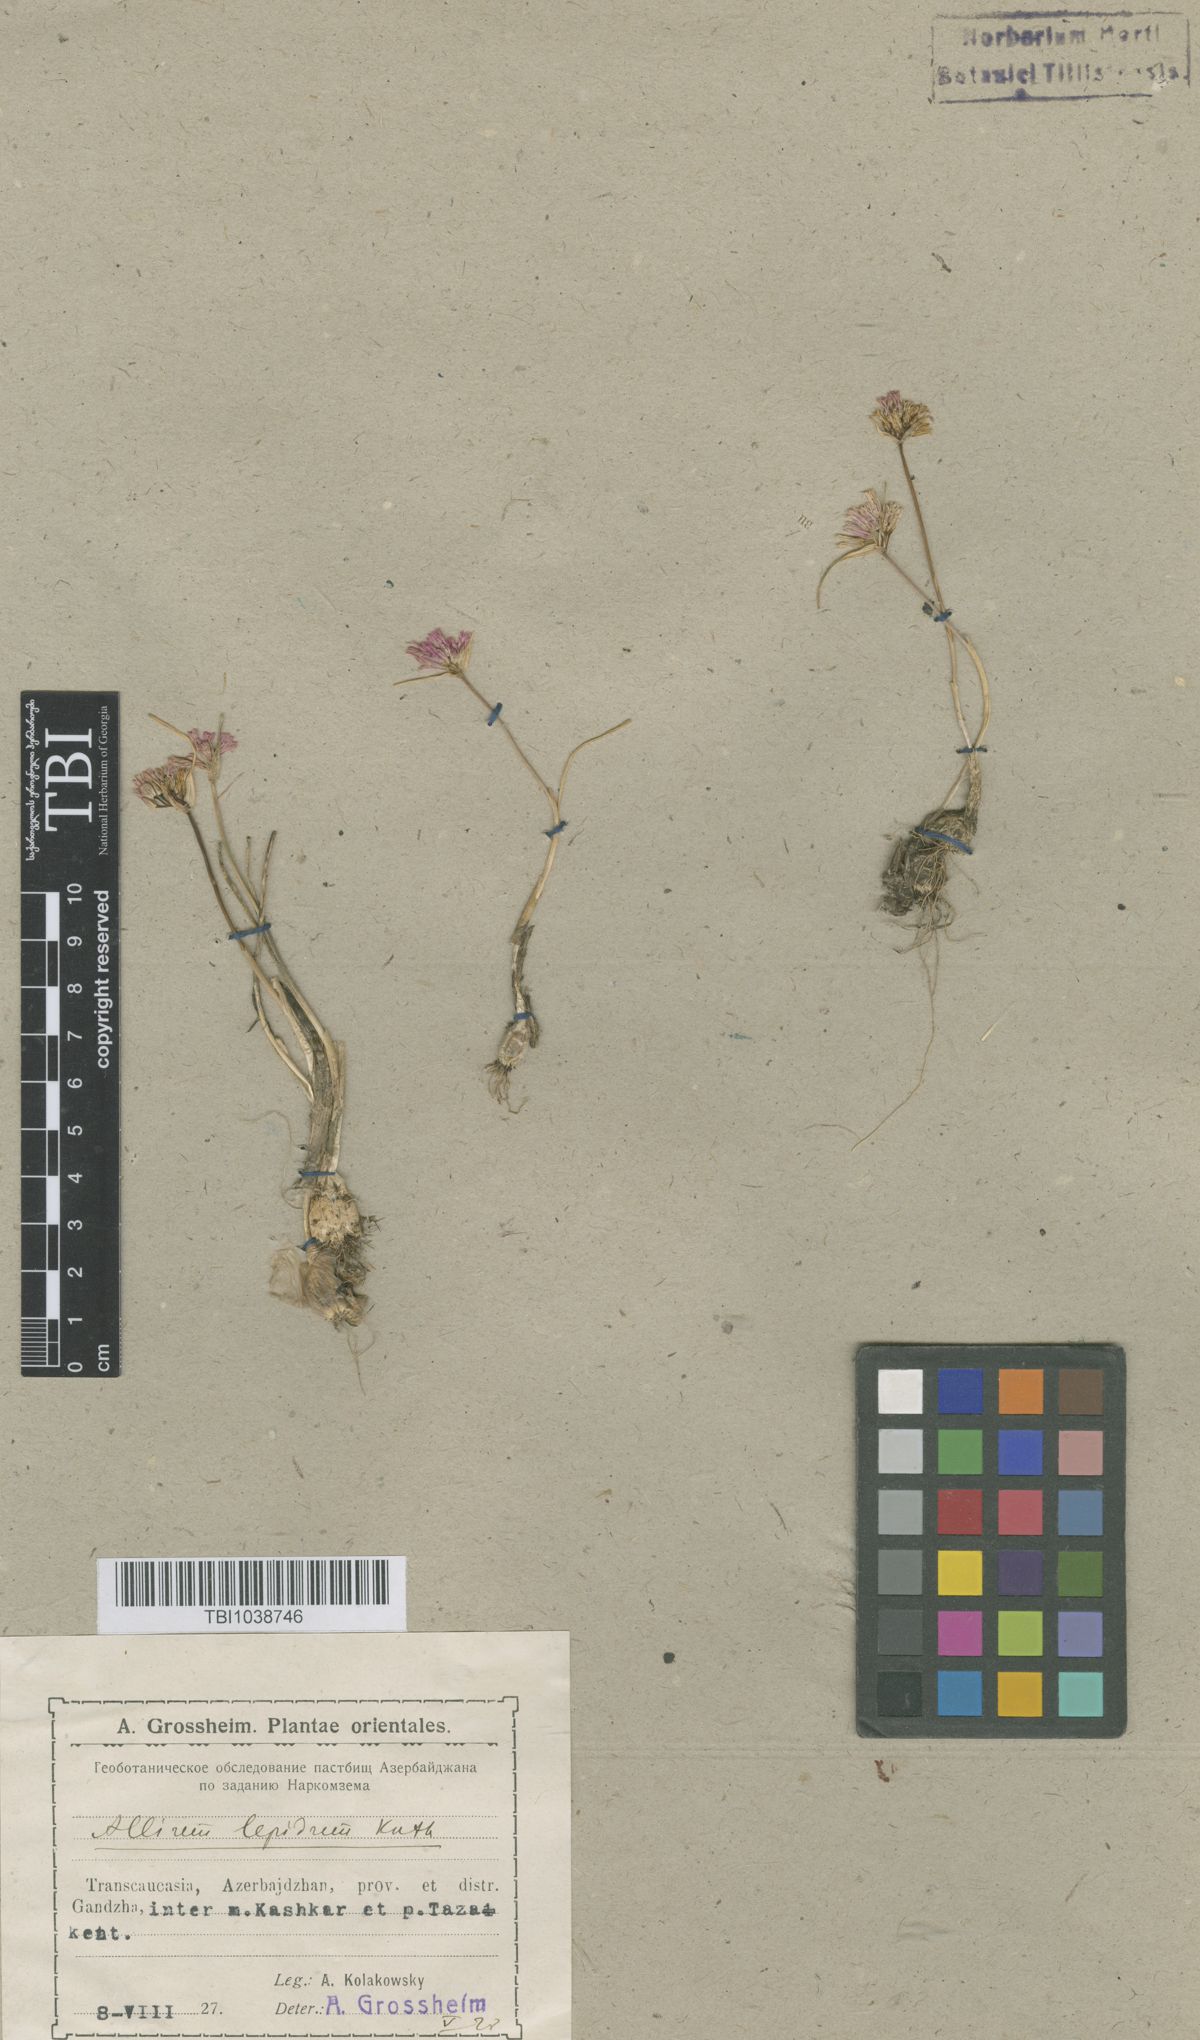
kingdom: Plantae
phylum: Tracheophyta
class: Liliopsida
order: Asparagales
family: Amaryllidaceae
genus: Allium
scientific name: Allium kunthianum
